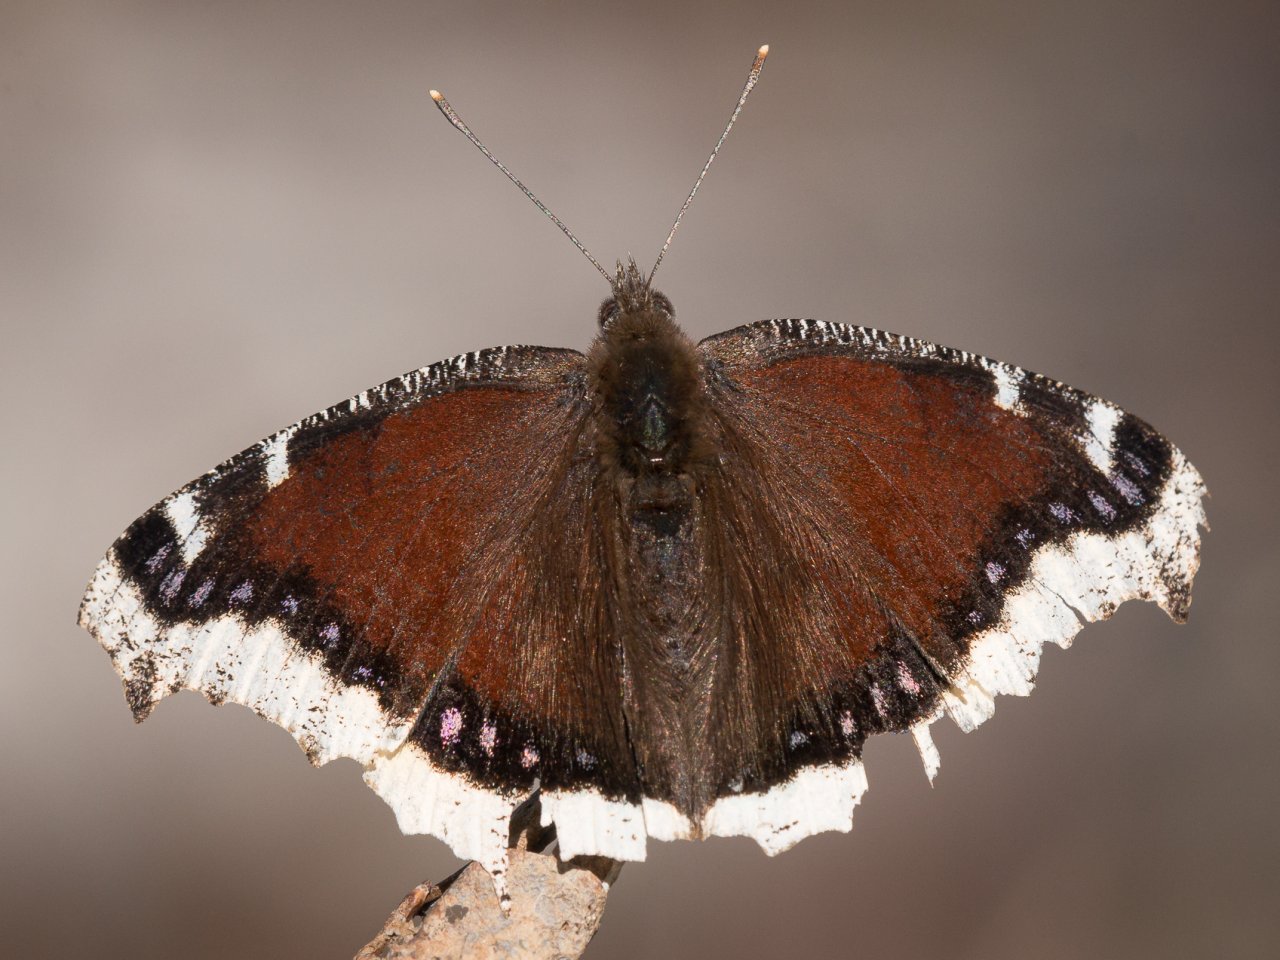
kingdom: Animalia
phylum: Arthropoda
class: Insecta
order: Lepidoptera
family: Nymphalidae
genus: Nymphalis
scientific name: Nymphalis antiopa
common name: Mourning Cloak
